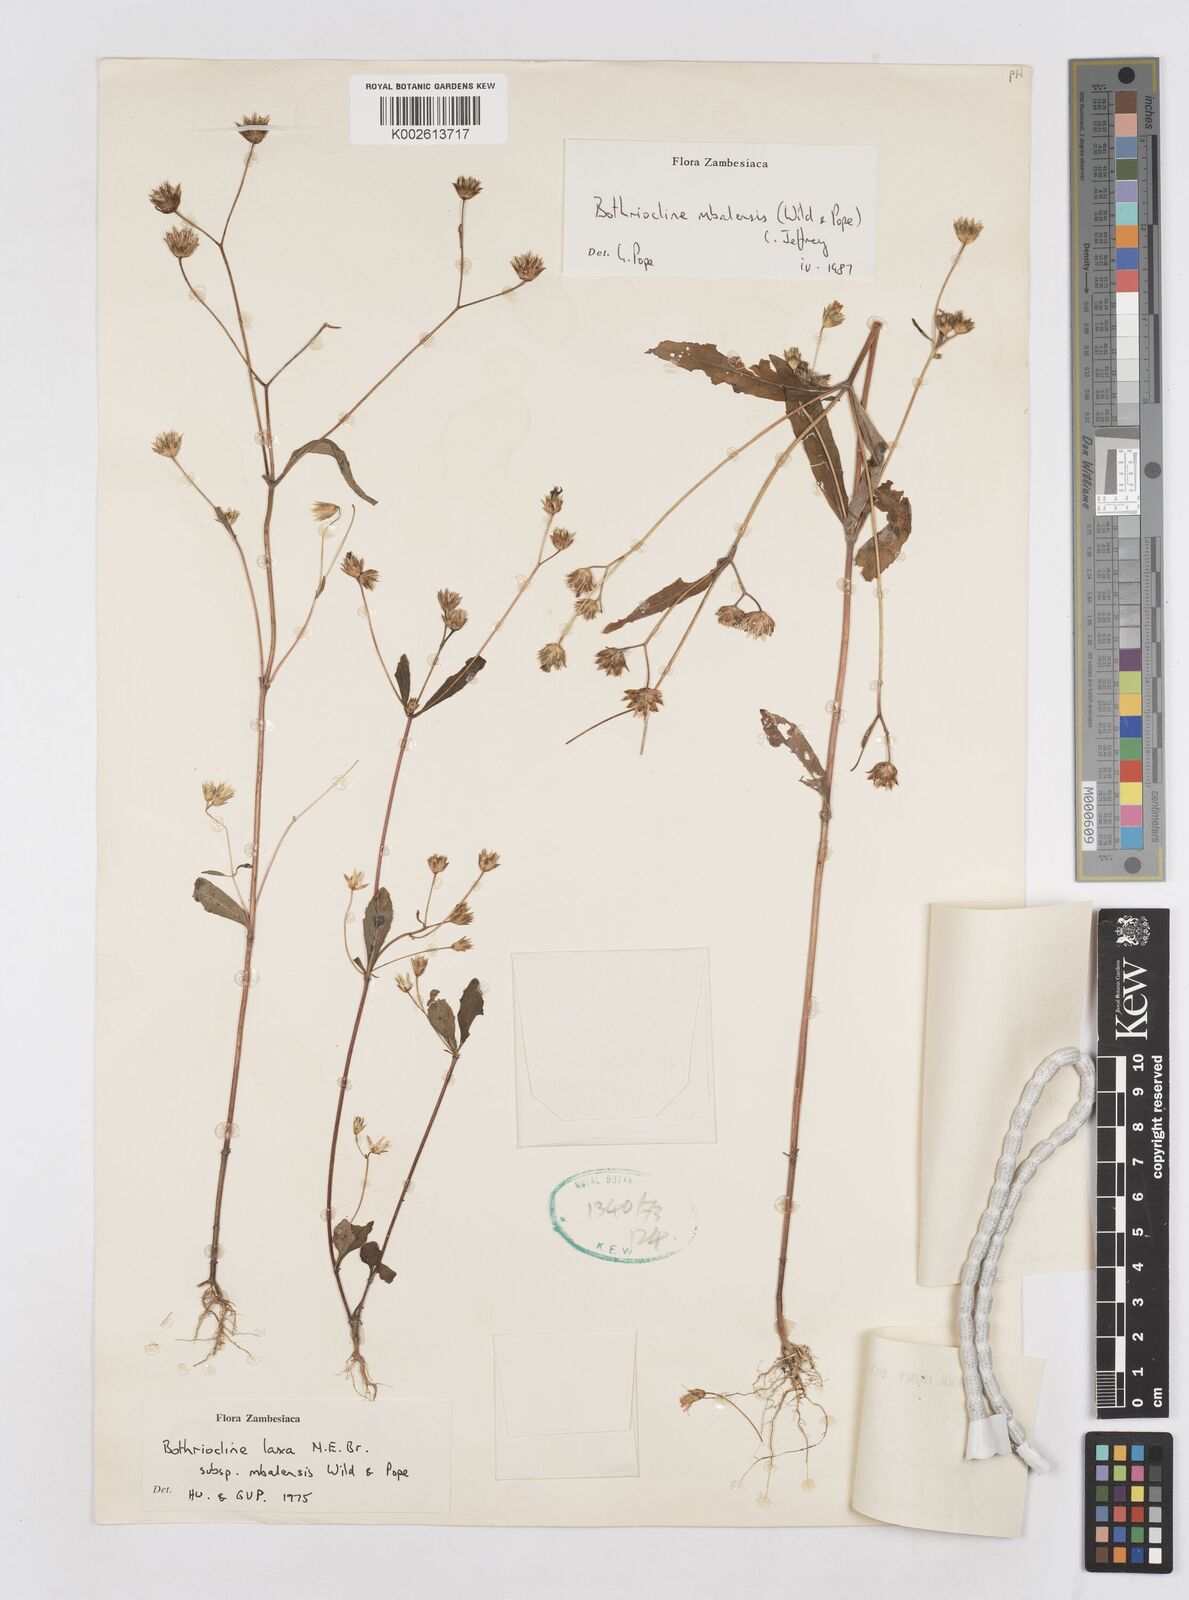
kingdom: Plantae
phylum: Tracheophyta
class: Magnoliopsida
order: Asterales
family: Asteraceae
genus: Bothriocline
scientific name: Bothriocline mbalensis
